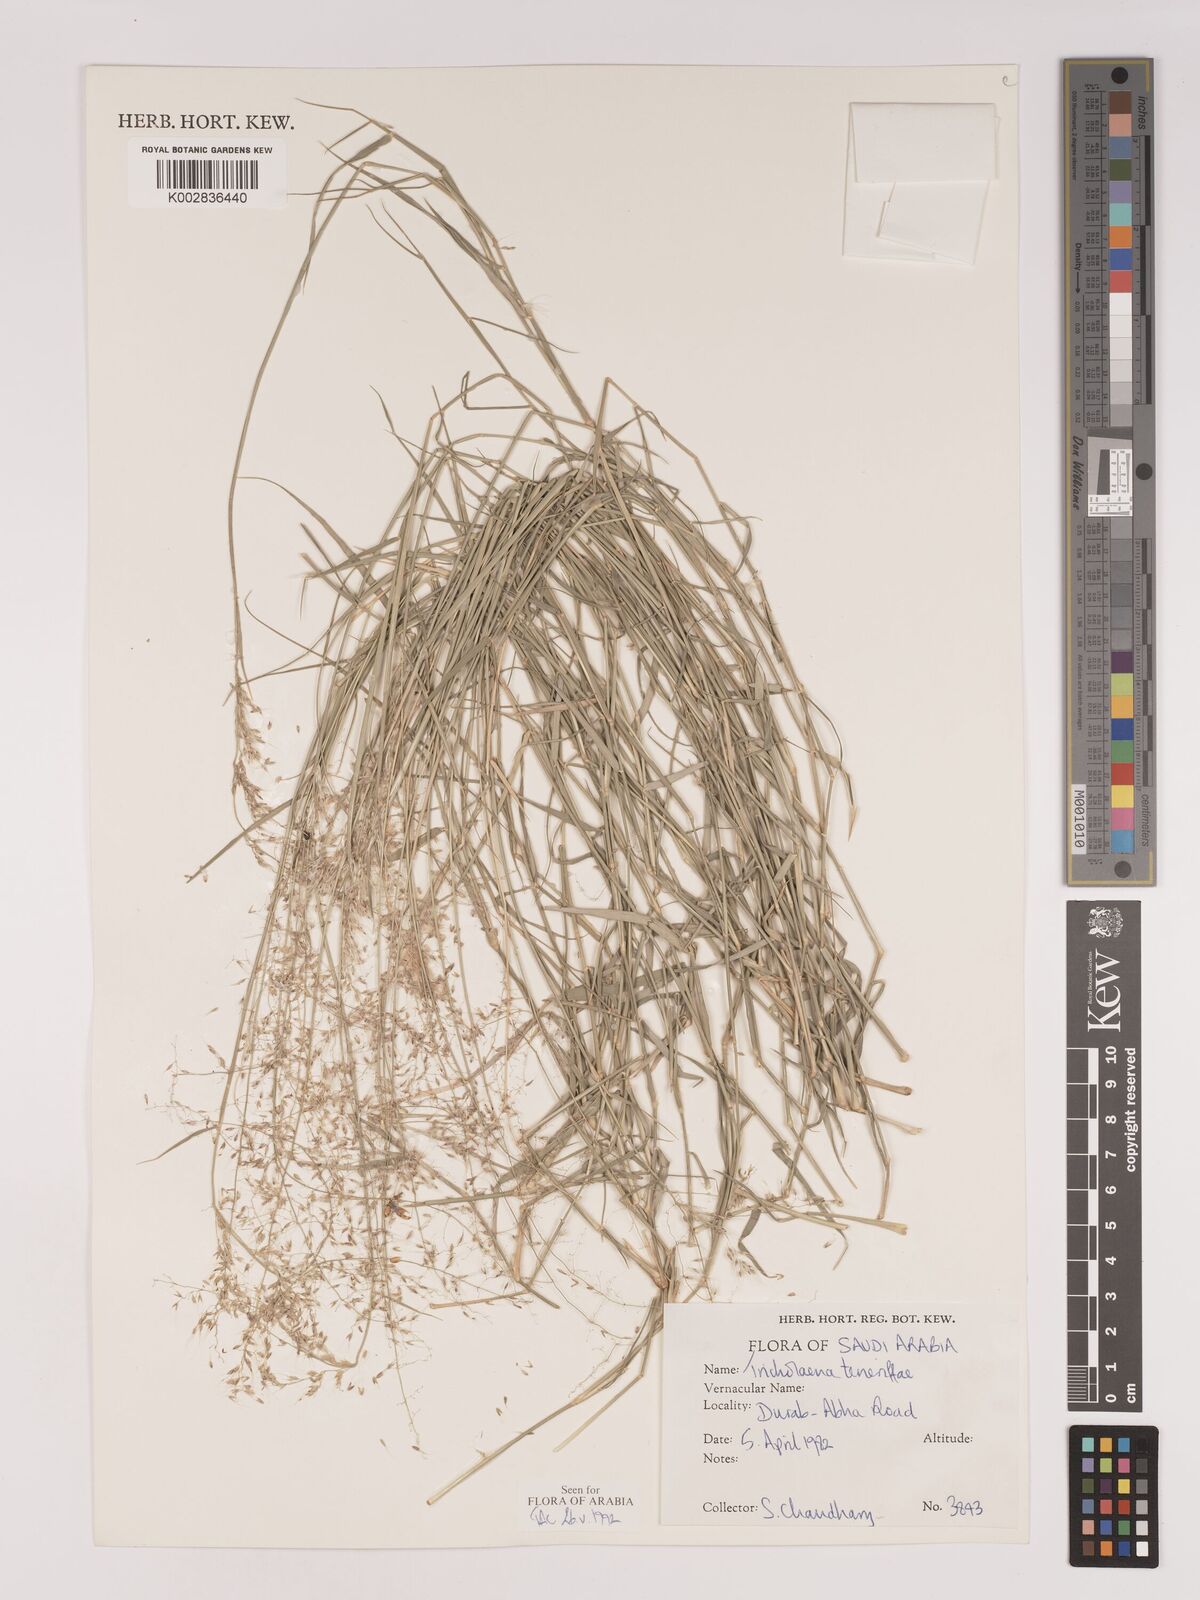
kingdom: Plantae
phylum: Tracheophyta
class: Liliopsida
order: Poales
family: Poaceae
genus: Tricholaena
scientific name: Tricholaena teneriffae
